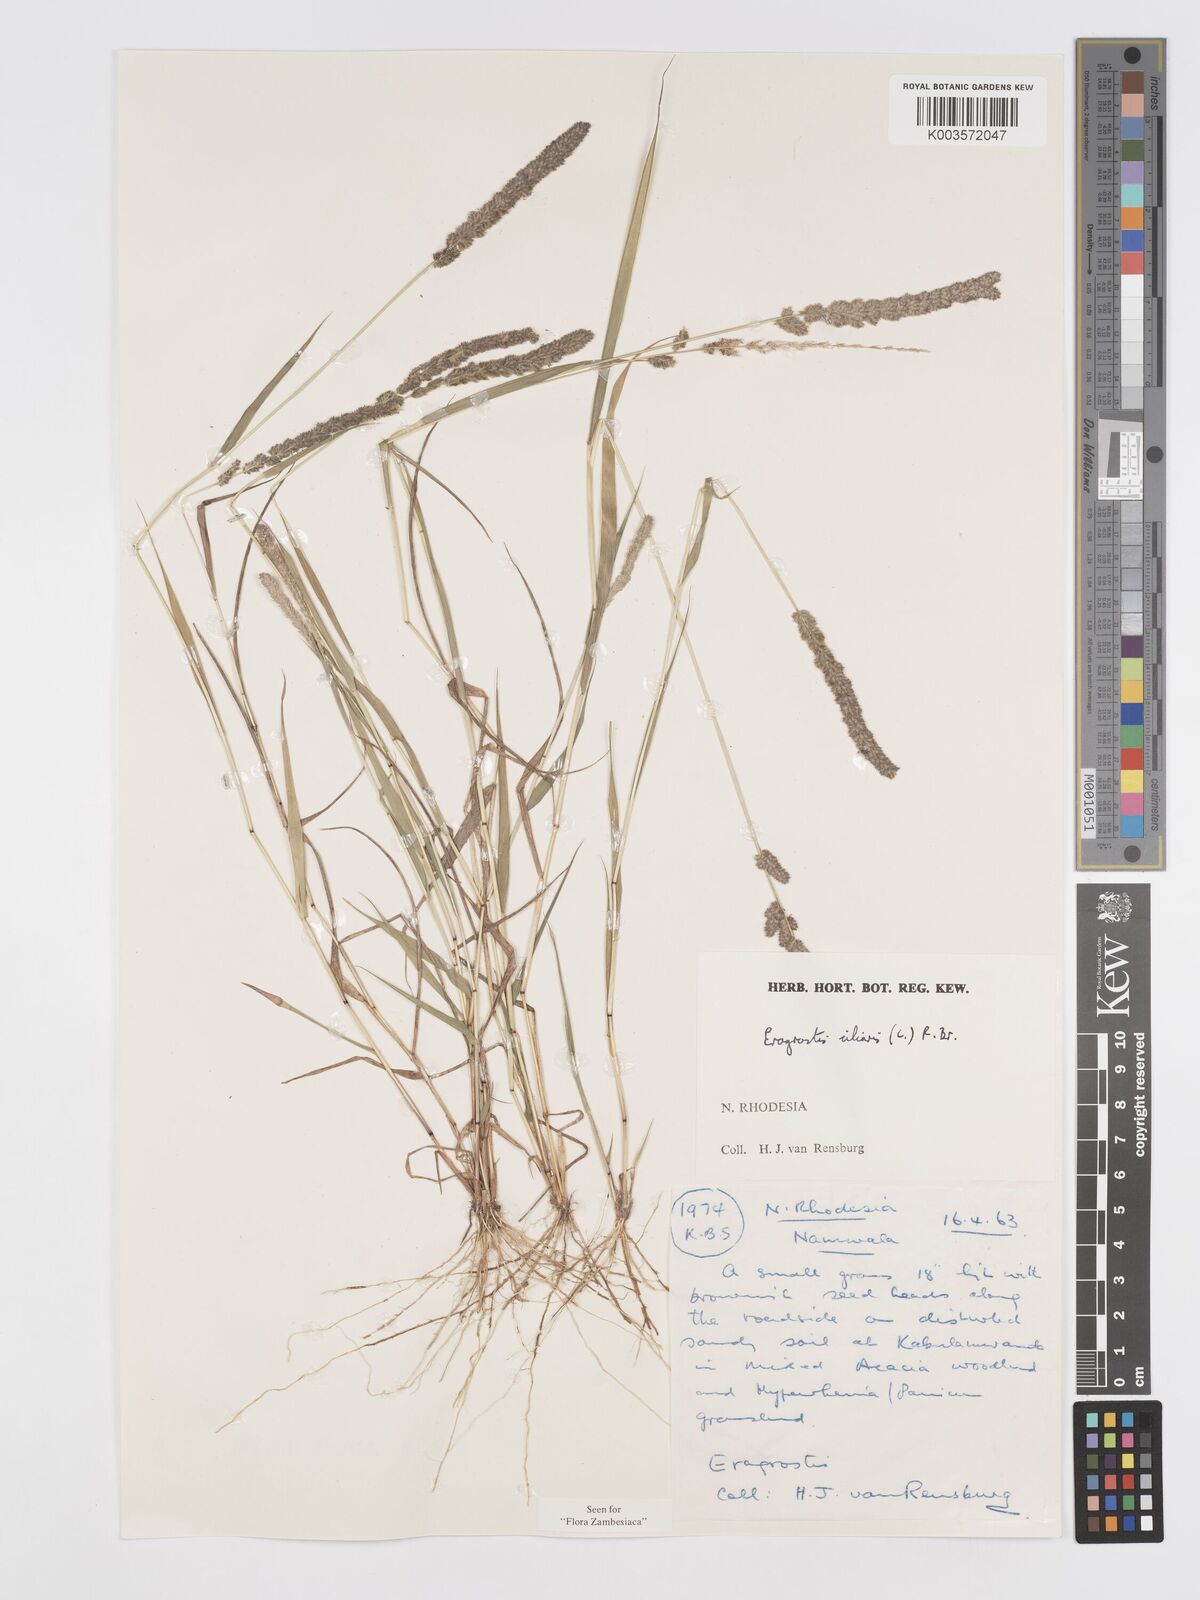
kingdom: Plantae
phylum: Tracheophyta
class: Liliopsida
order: Poales
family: Poaceae
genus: Eragrostis
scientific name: Eragrostis ciliaris
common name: Gophertail lovegrass
